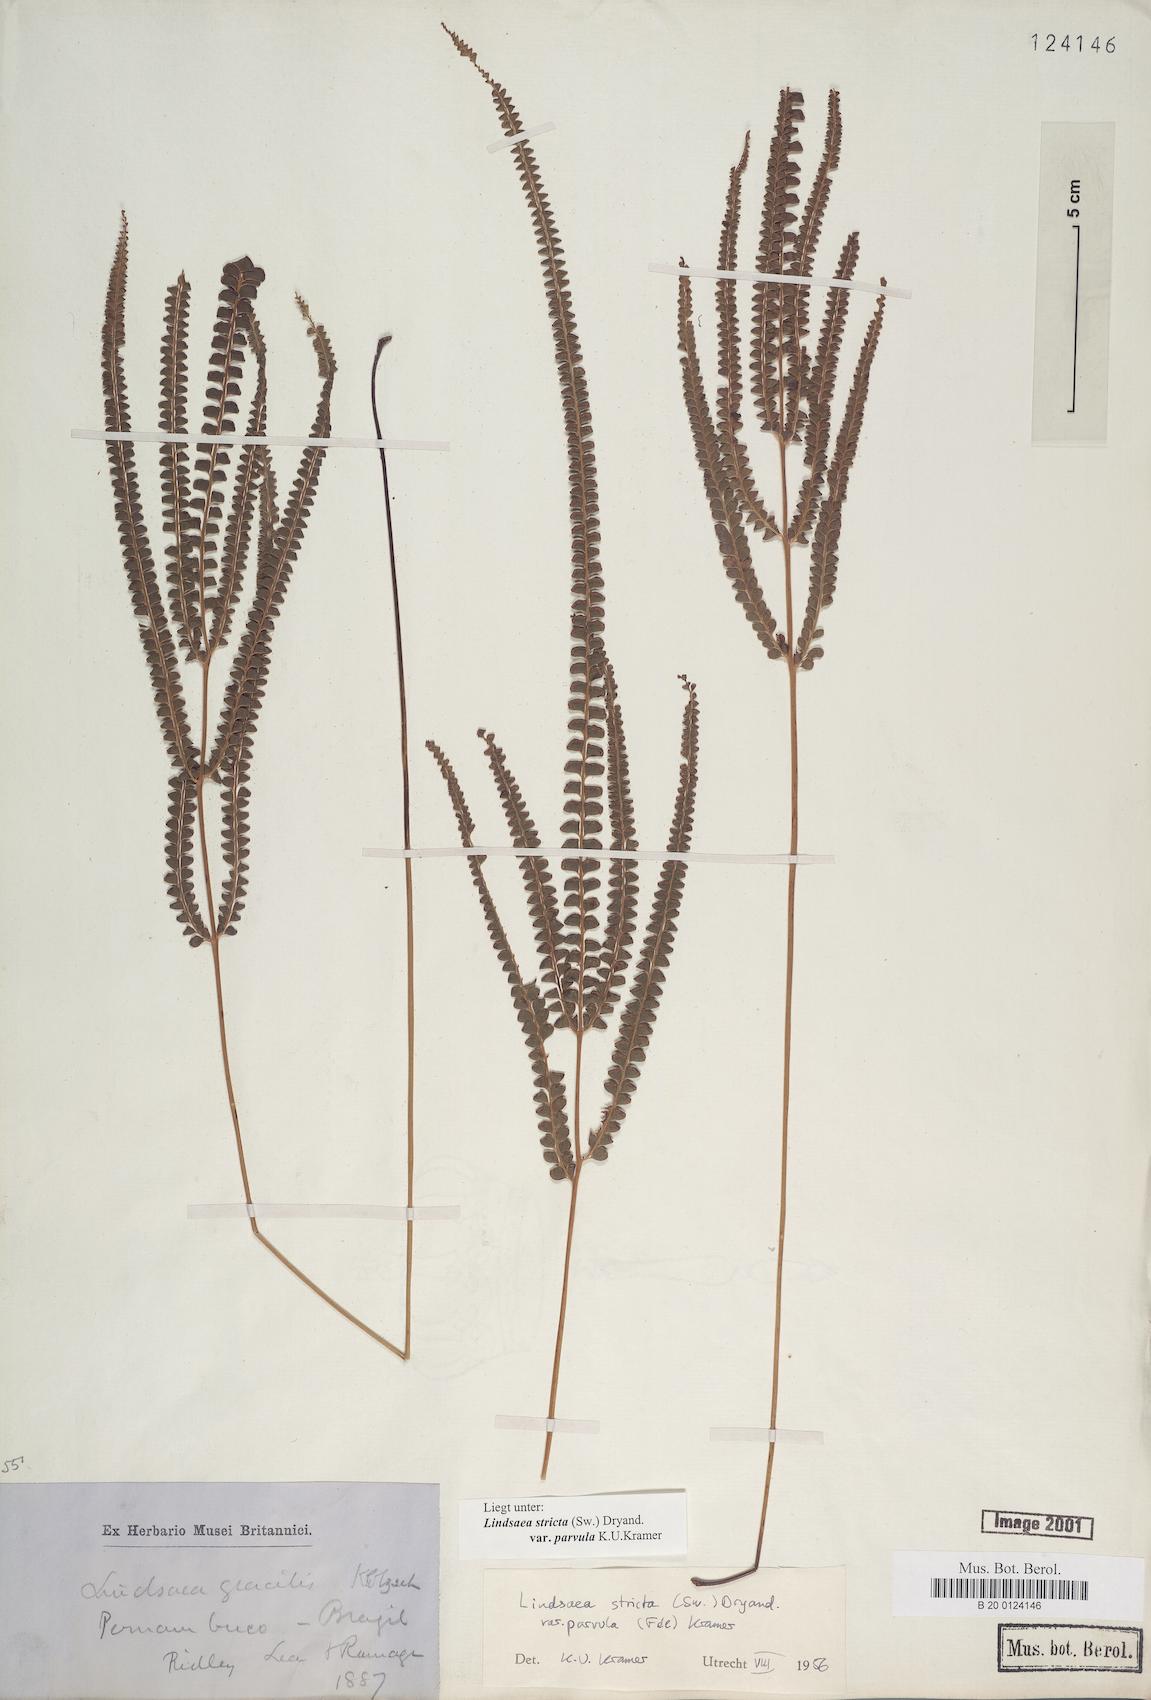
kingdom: Plantae
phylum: Tracheophyta
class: Polypodiopsida
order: Polypodiales
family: Lindsaeaceae
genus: Lindsaea
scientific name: Lindsaea stricta
